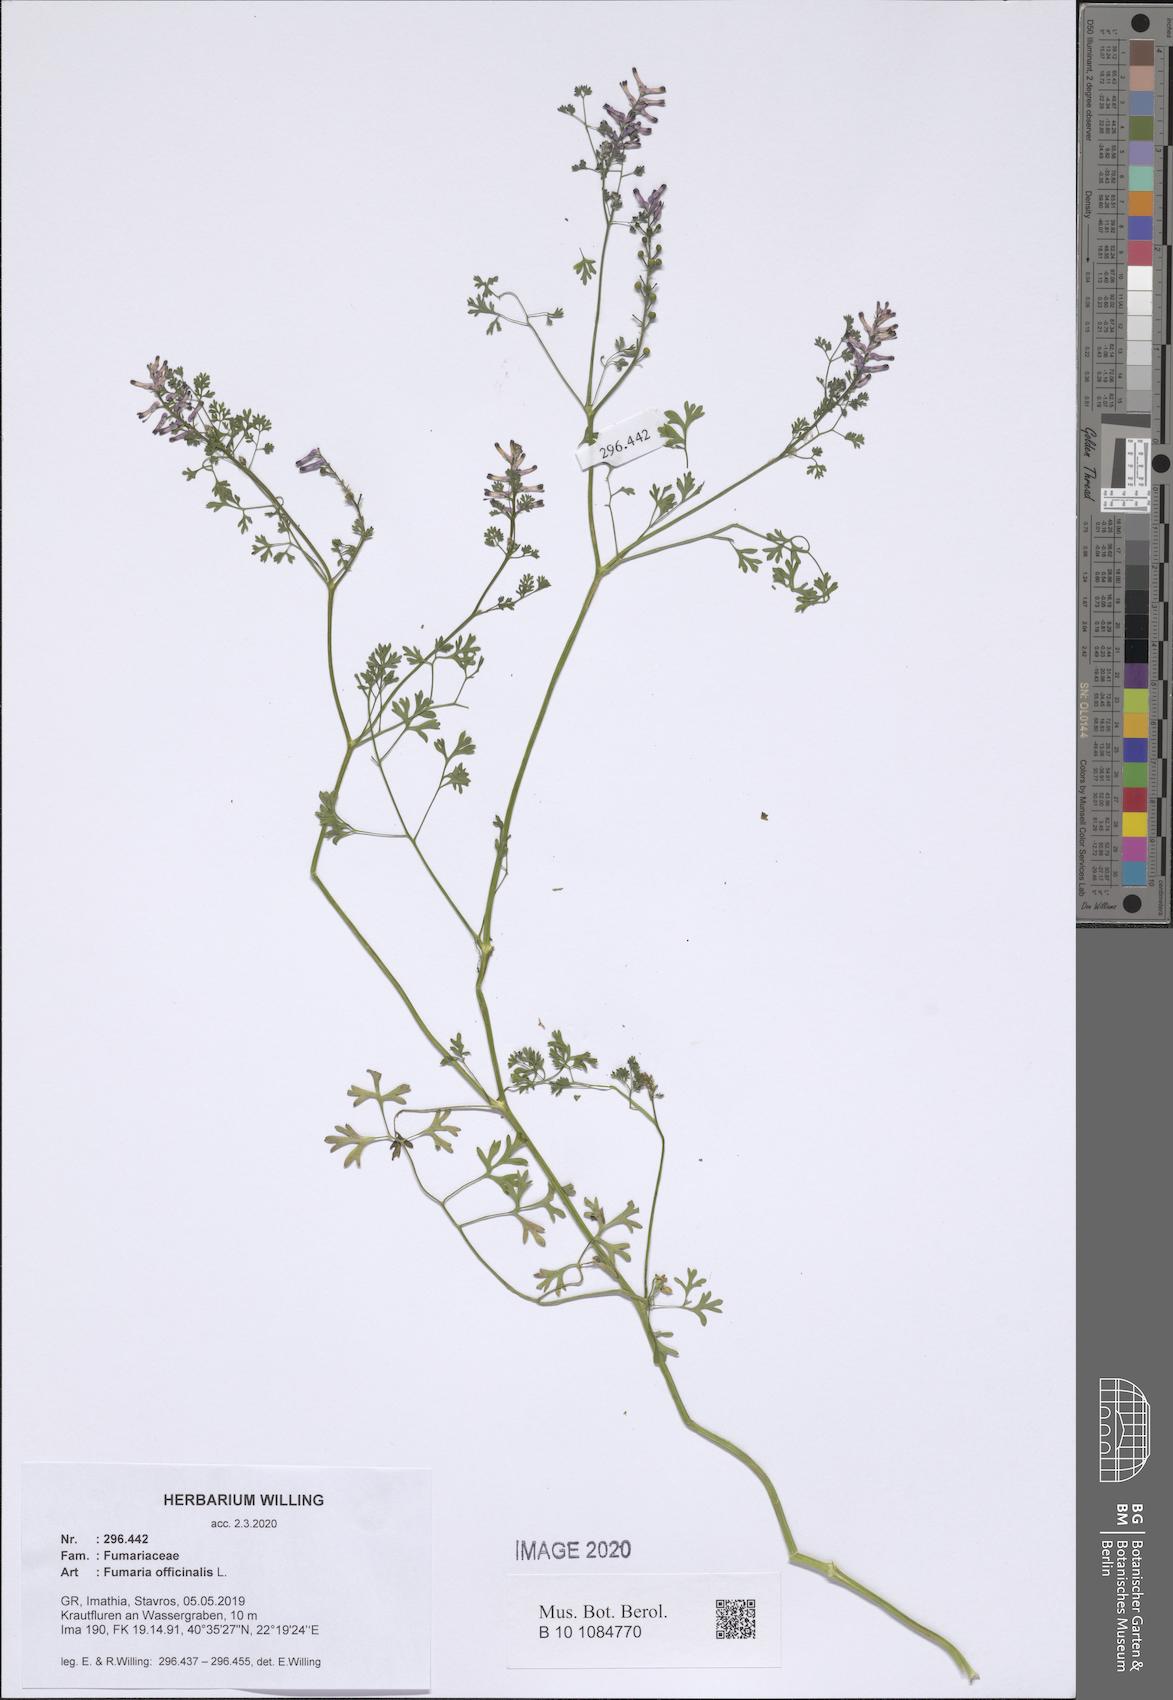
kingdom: Plantae
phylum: Tracheophyta
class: Magnoliopsida
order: Ranunculales
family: Papaveraceae
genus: Fumaria
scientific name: Fumaria officinalis
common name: Common fumitory
